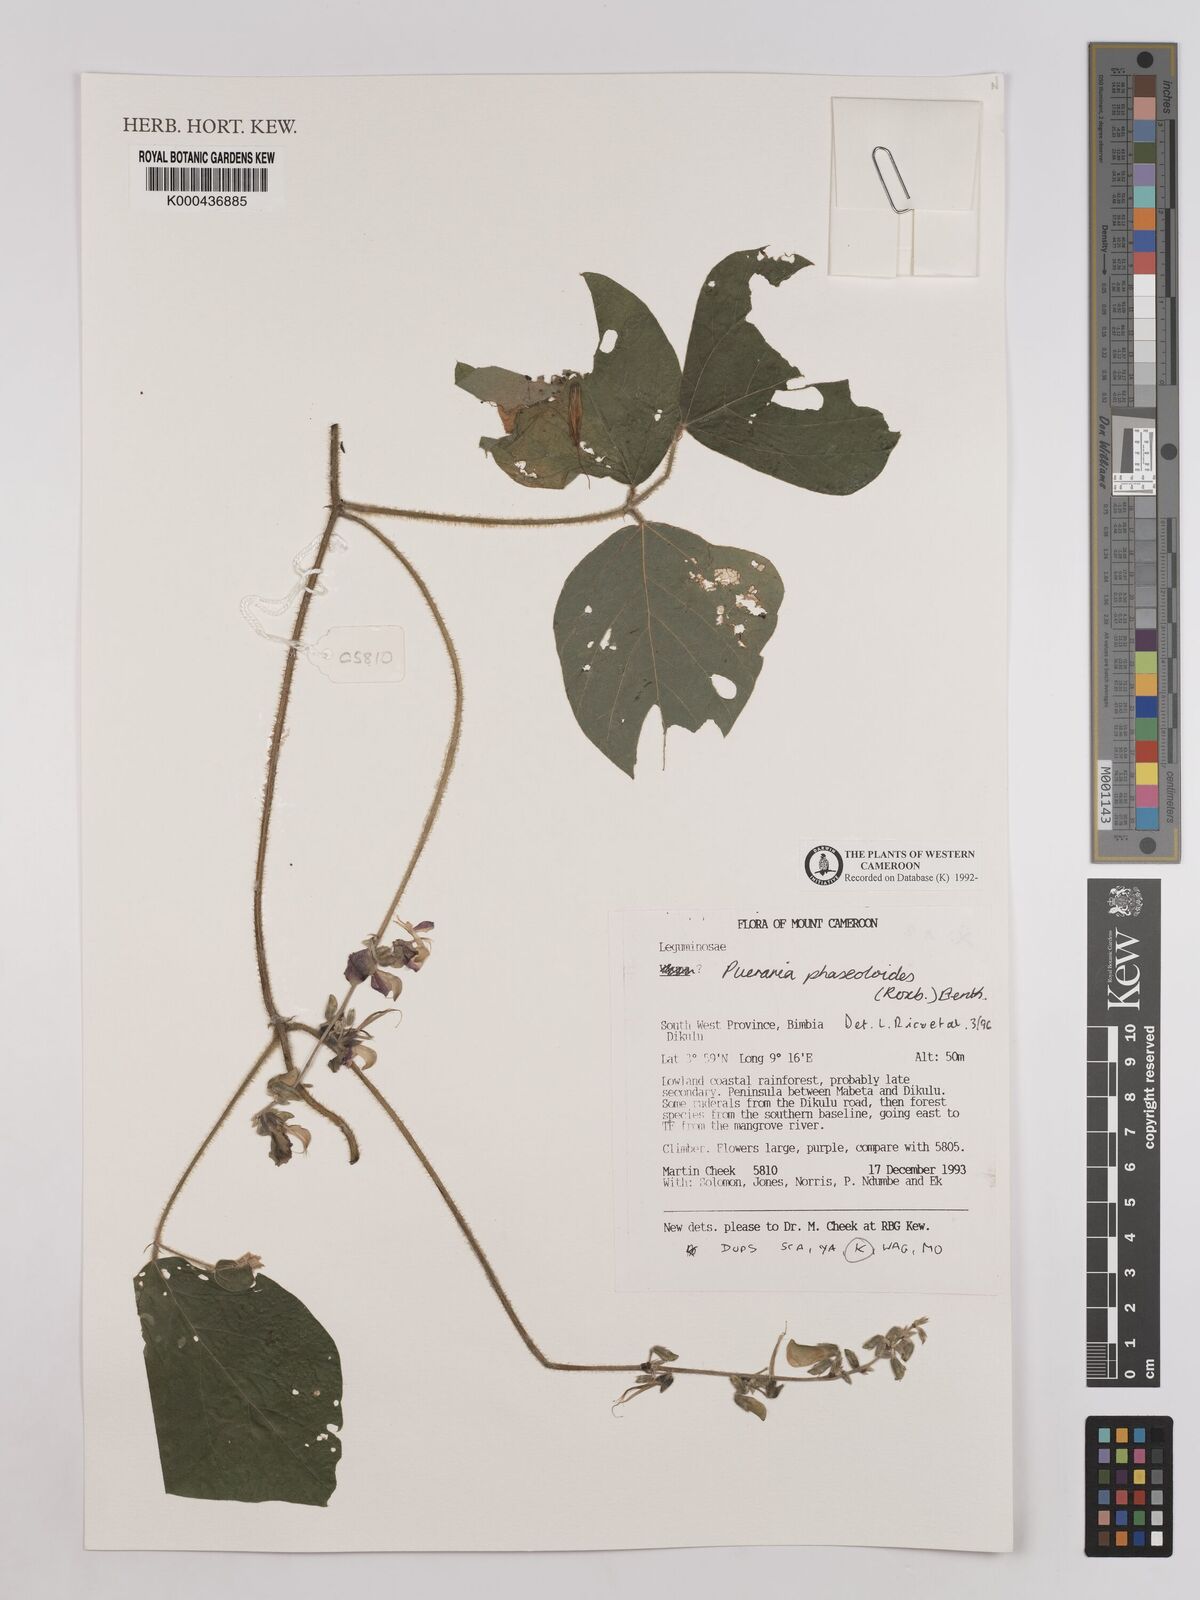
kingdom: Plantae
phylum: Tracheophyta
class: Magnoliopsida
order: Fabales
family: Fabaceae
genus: Neustanthus
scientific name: Neustanthus phaseoloides
